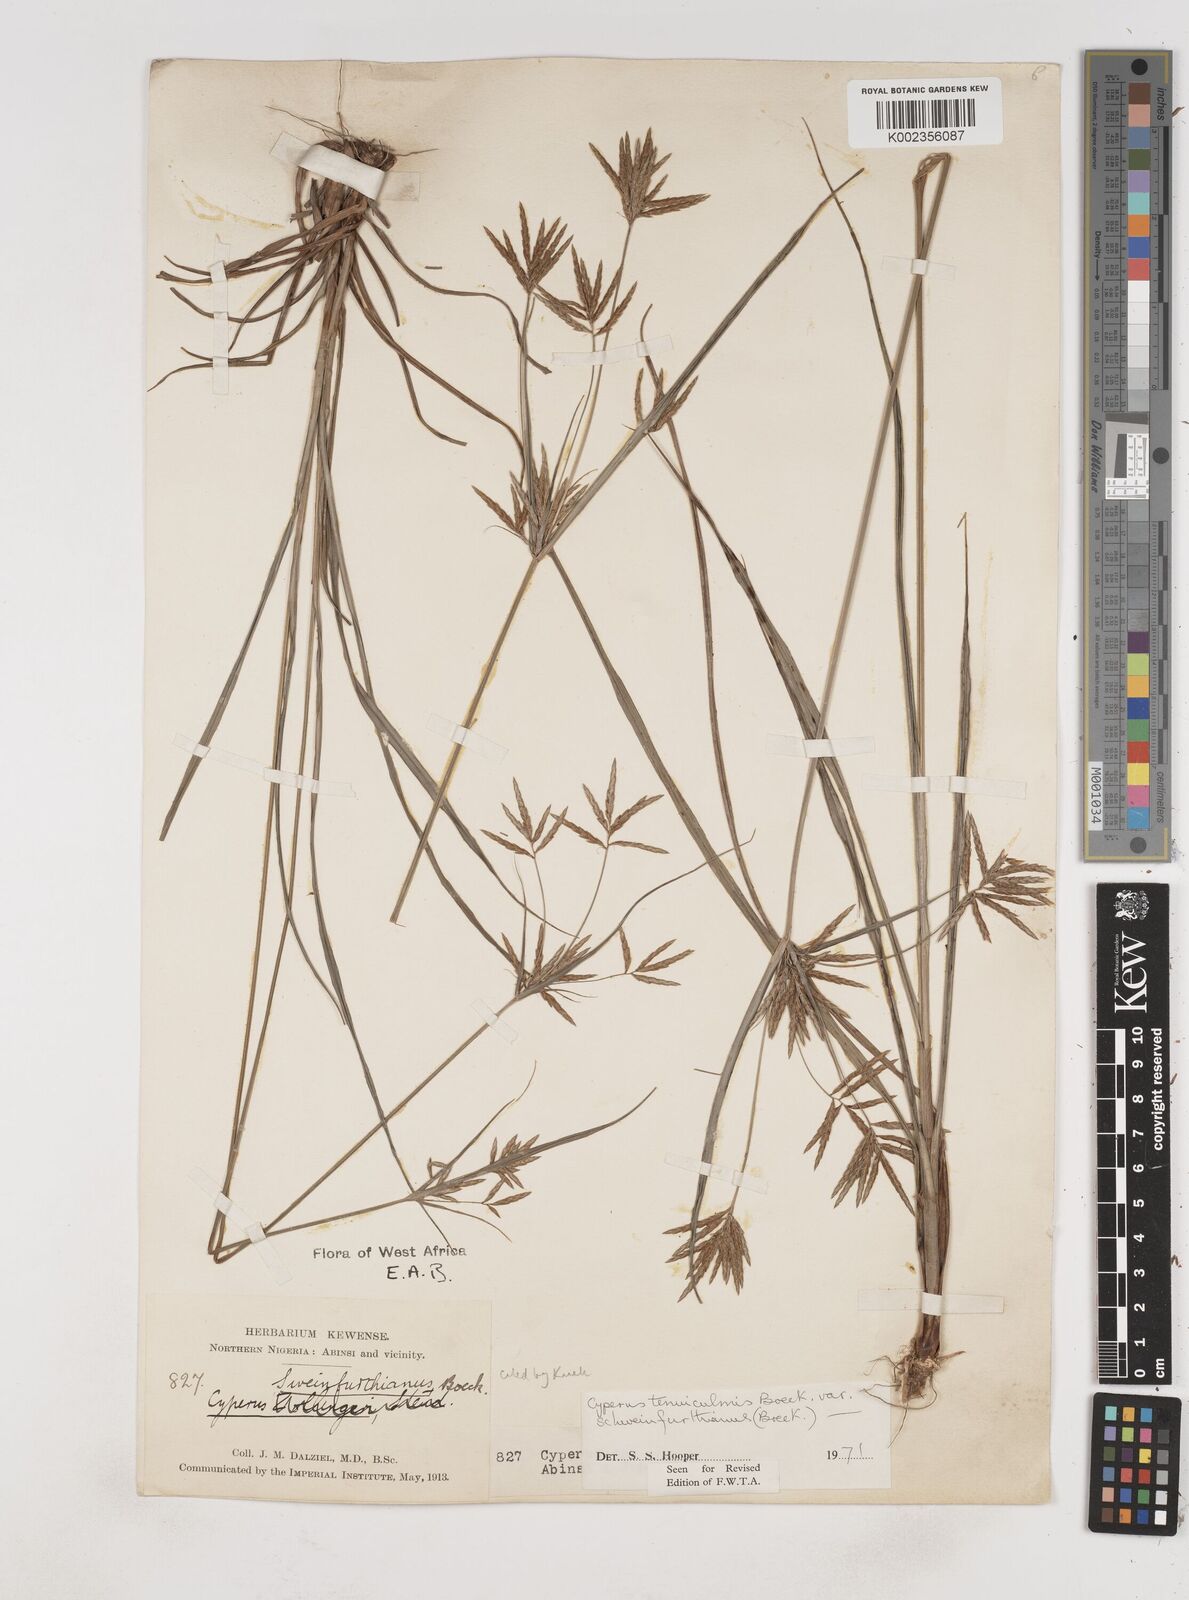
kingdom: Plantae
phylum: Tracheophyta
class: Liliopsida
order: Poales
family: Cyperaceae
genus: Cyperus
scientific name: Cyperus tenuiculmis
